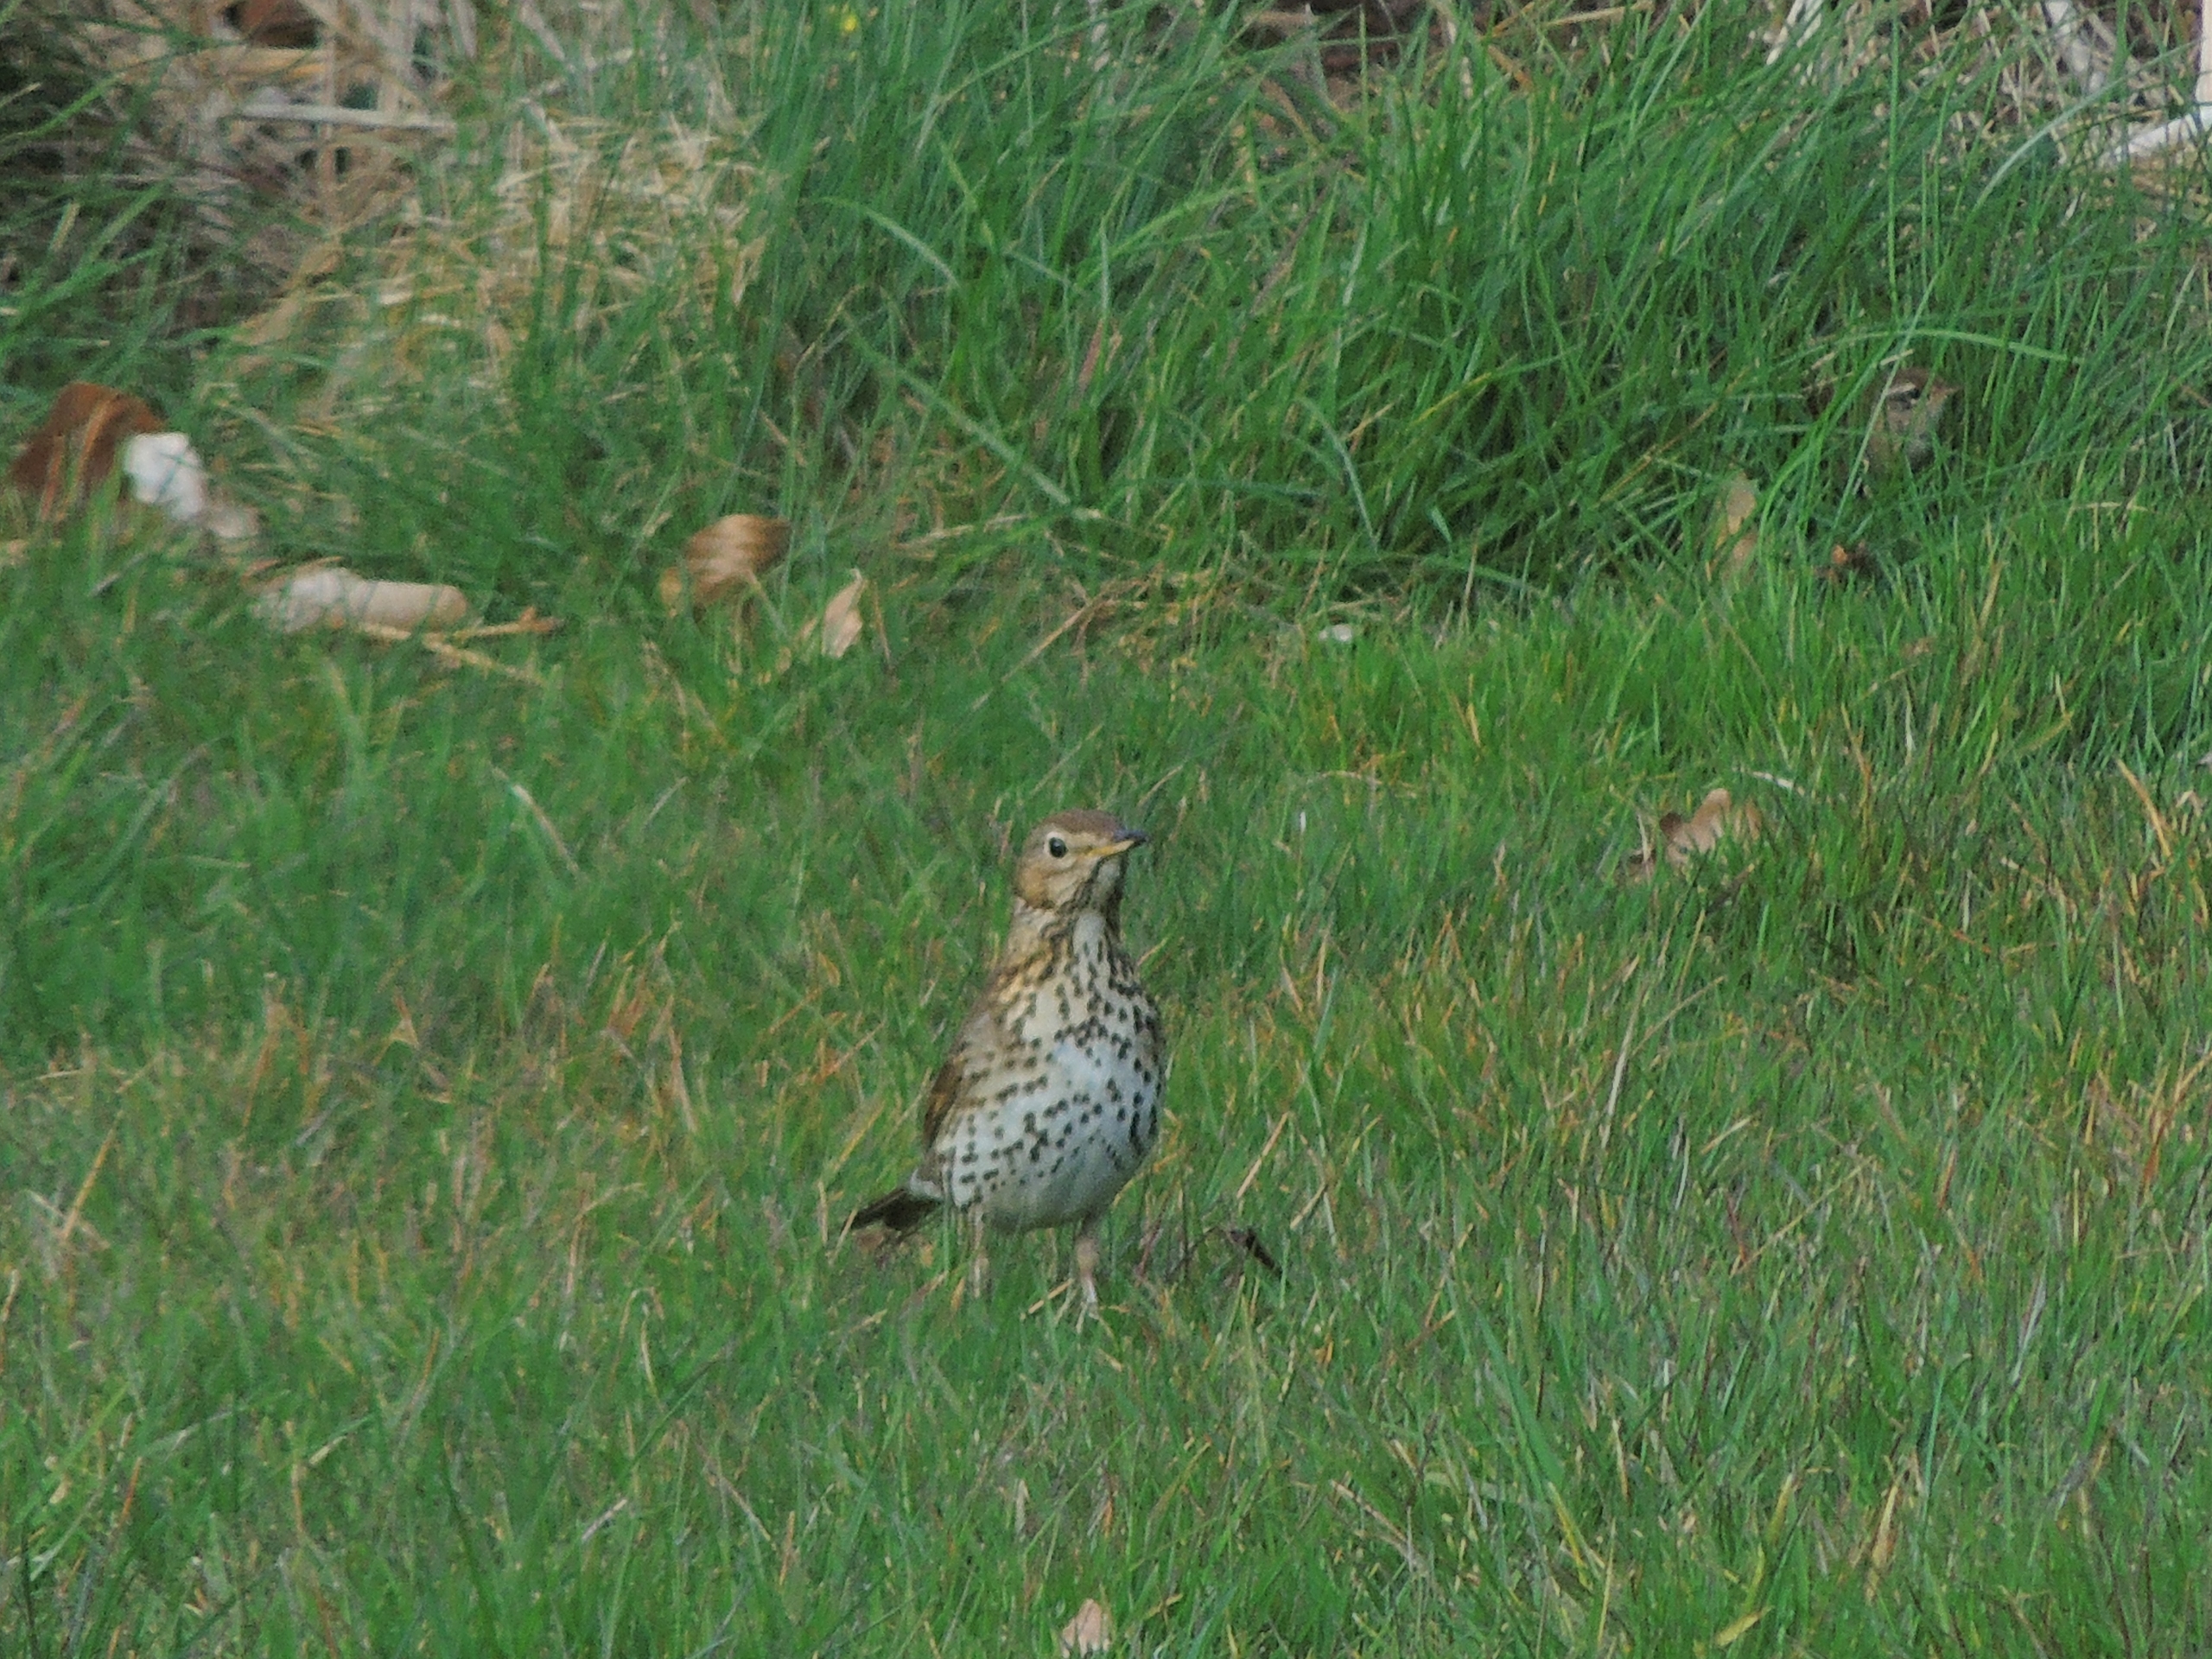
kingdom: Animalia
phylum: Chordata
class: Aves
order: Passeriformes
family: Turdidae
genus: Turdus
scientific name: Turdus philomelos
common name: Sangdrossel
